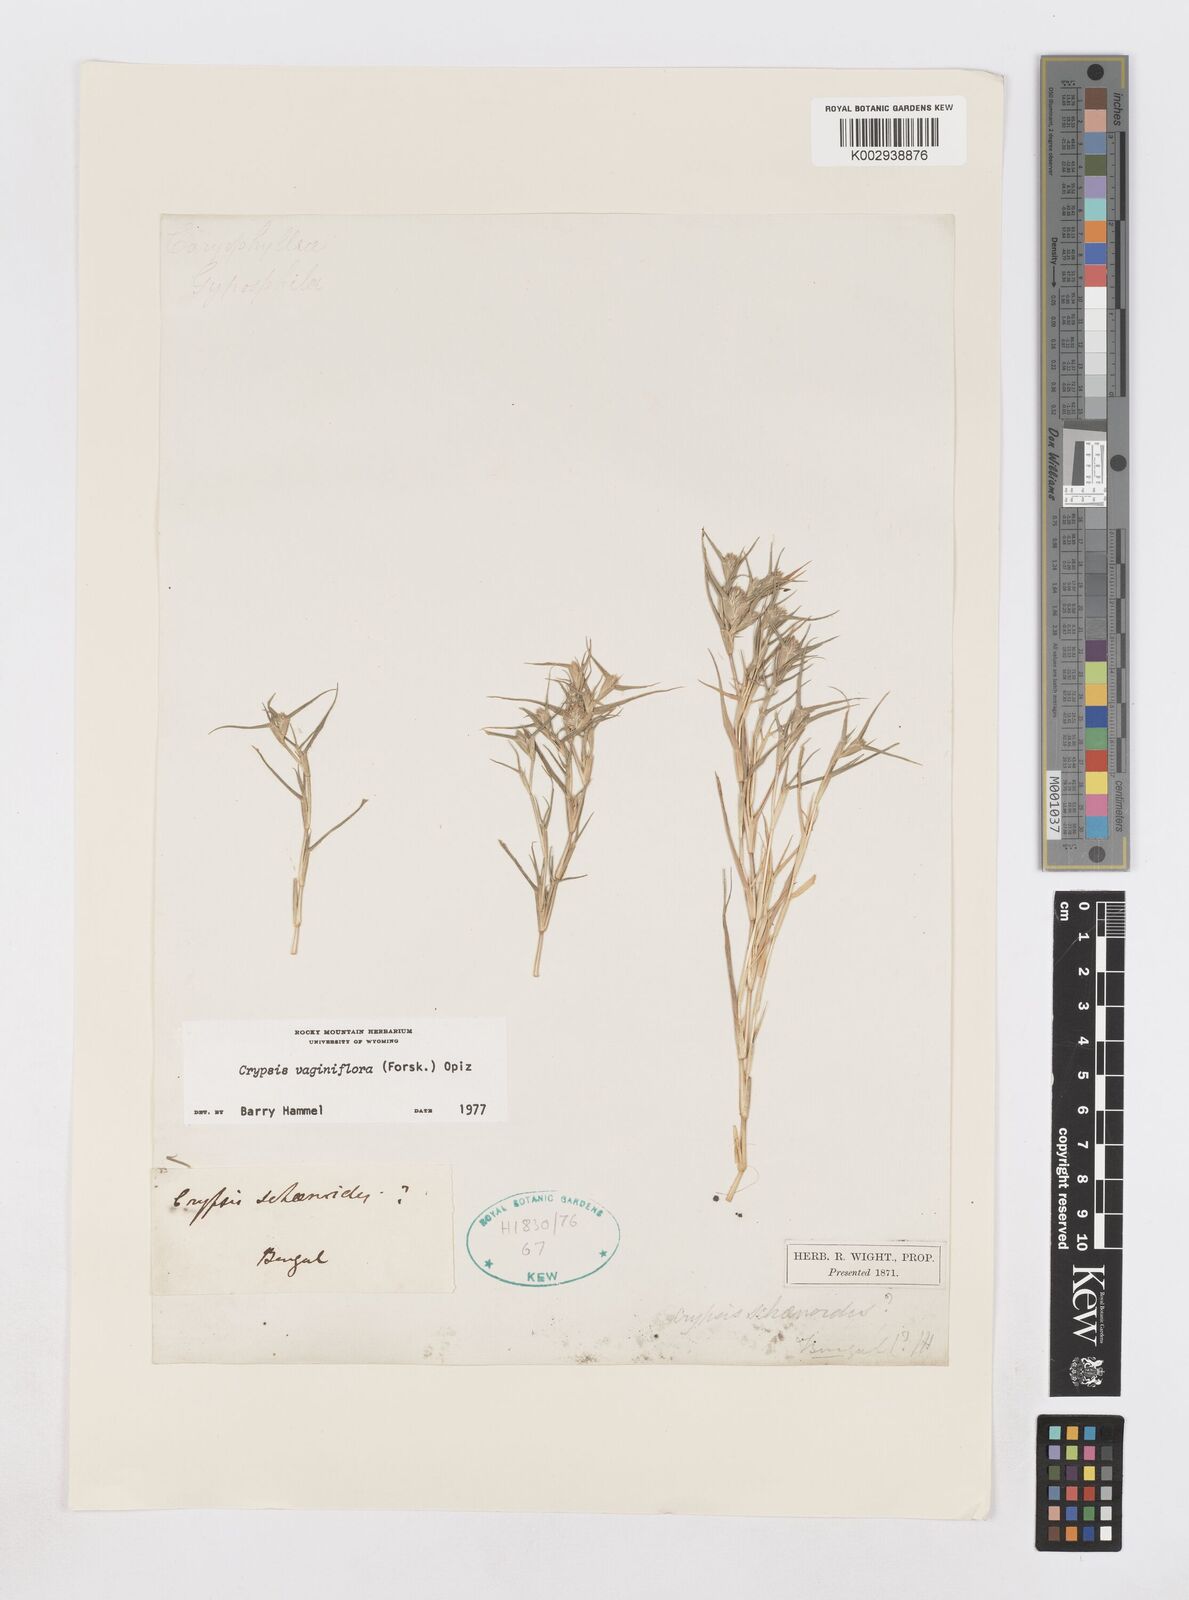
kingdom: Plantae
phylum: Tracheophyta
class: Liliopsida
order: Poales
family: Poaceae
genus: Sporobolus
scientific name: Sporobolus niliacus
